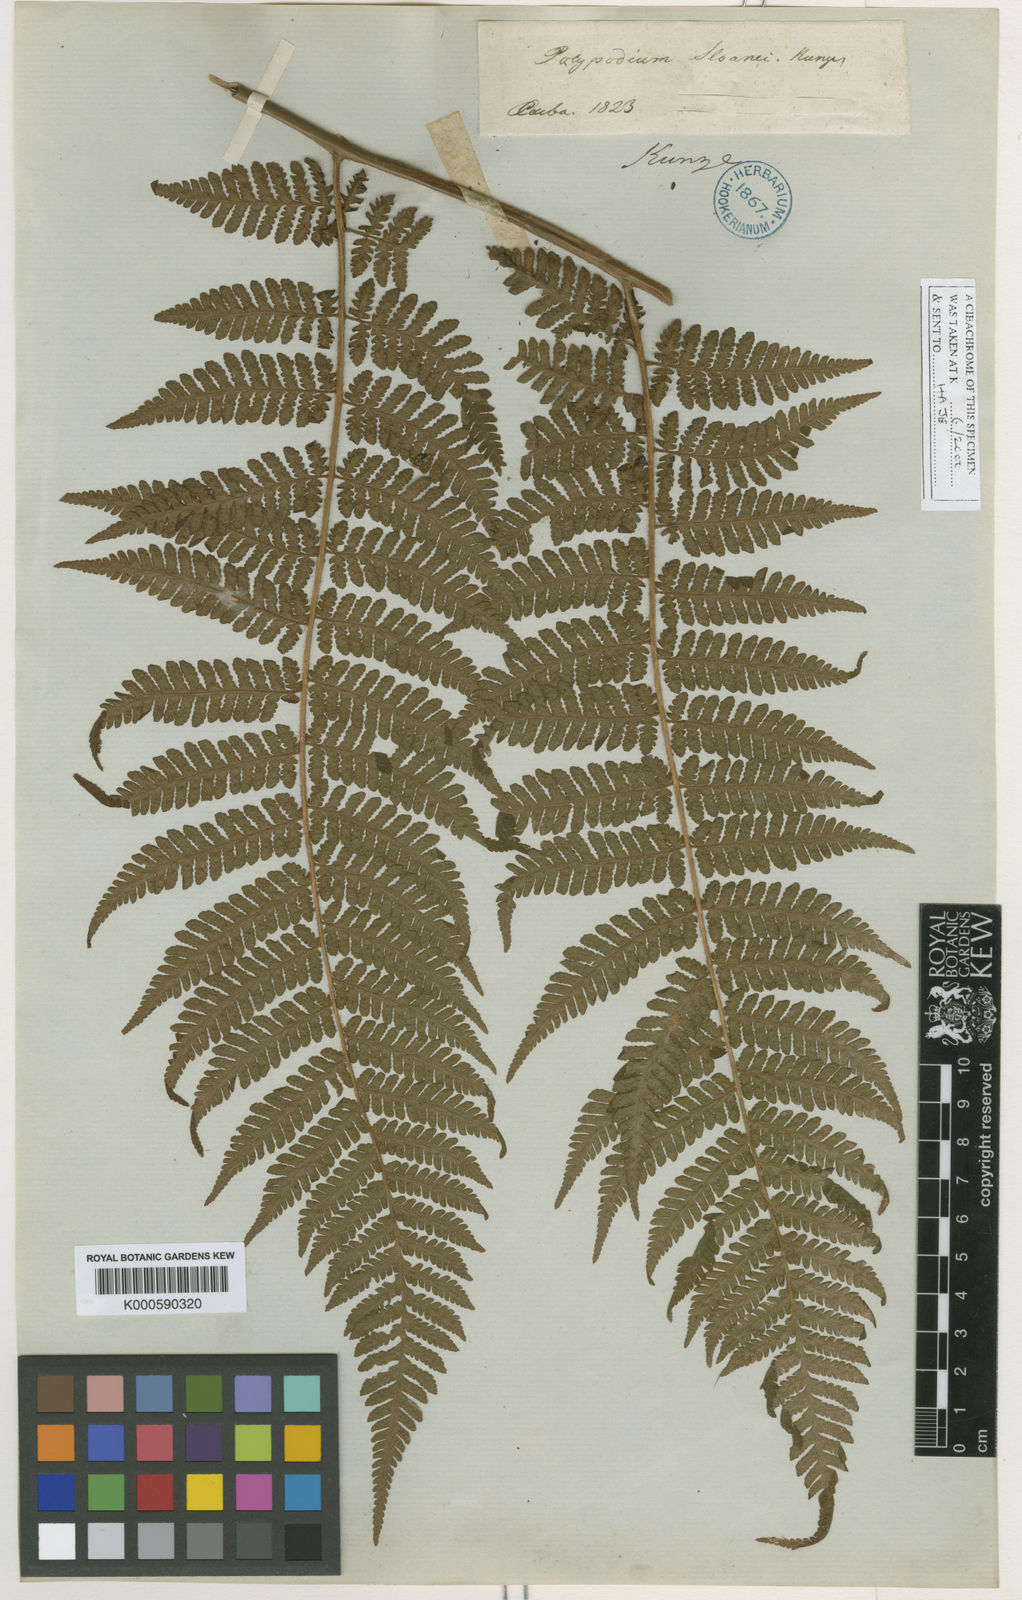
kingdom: Plantae
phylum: Tracheophyta
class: Polypodiopsida
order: Polypodiales
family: Dryopteridaceae
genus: Ctenitis
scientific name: Ctenitis sloanei
